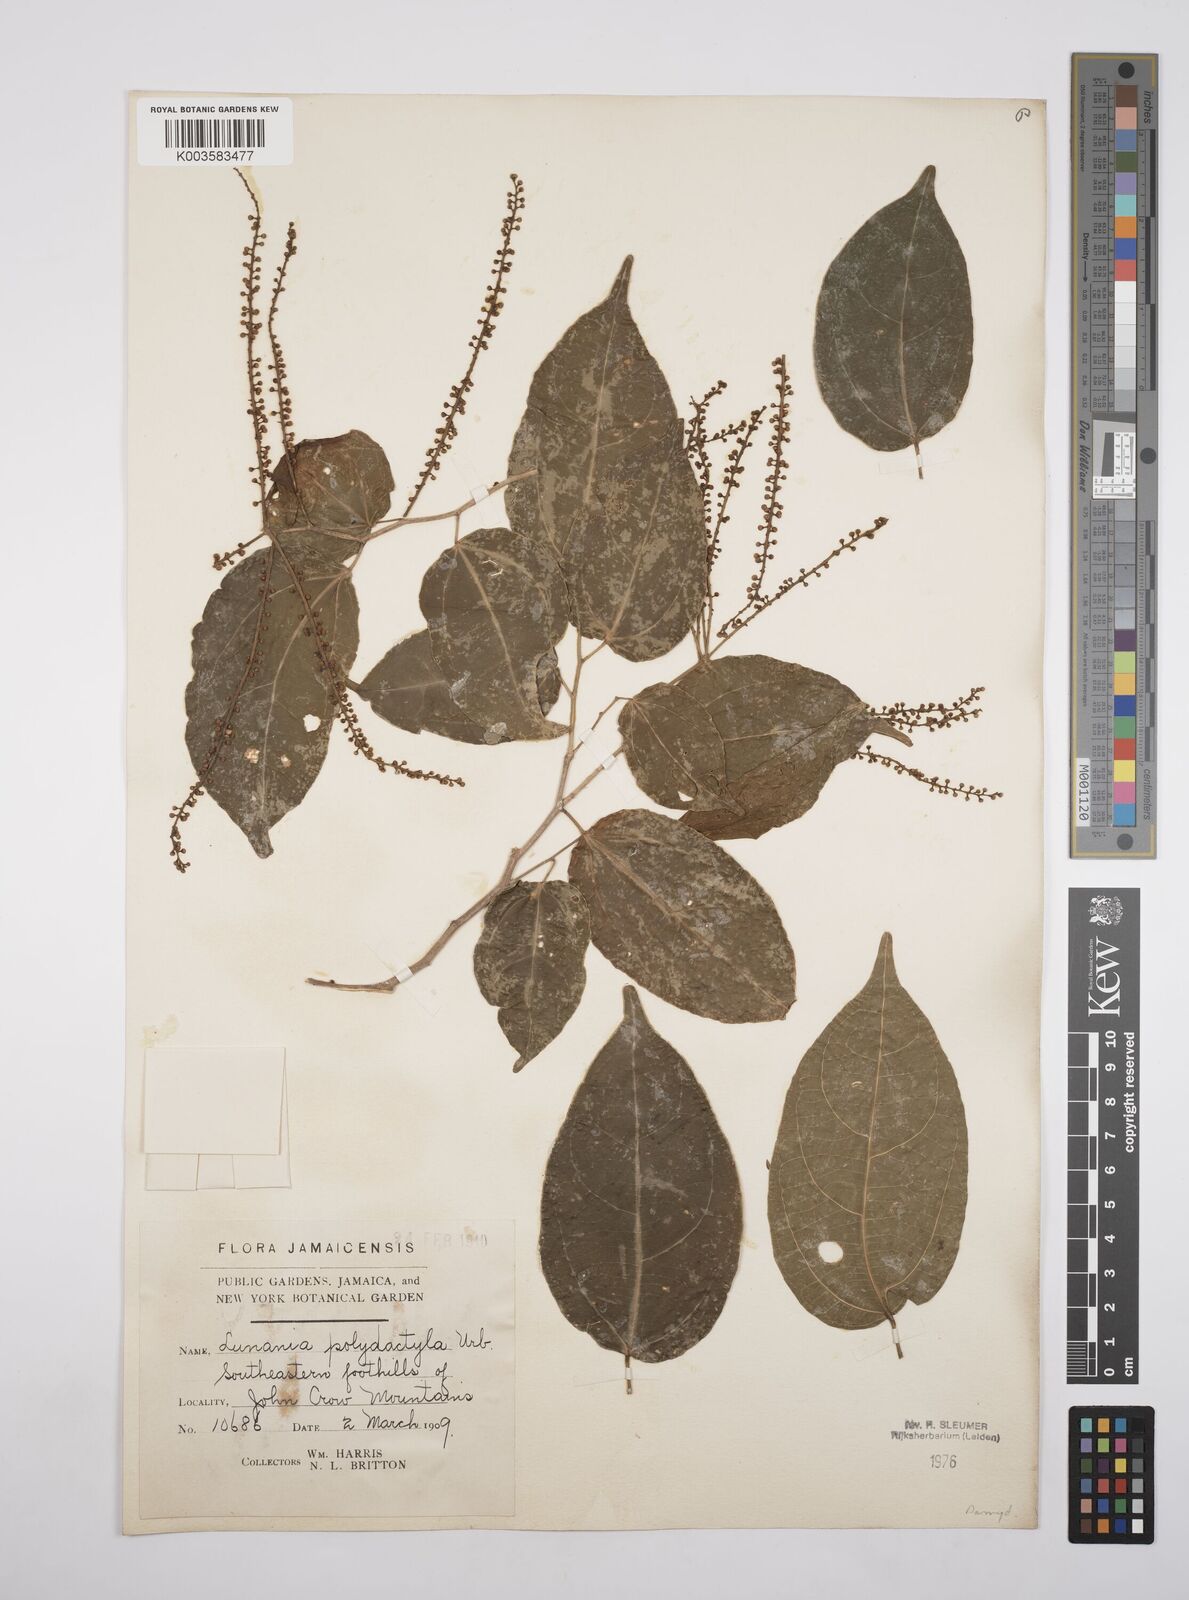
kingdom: Plantae
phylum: Tracheophyta
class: Magnoliopsida
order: Malpighiales
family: Salicaceae
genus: Lunania
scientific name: Lunania polydactyla
